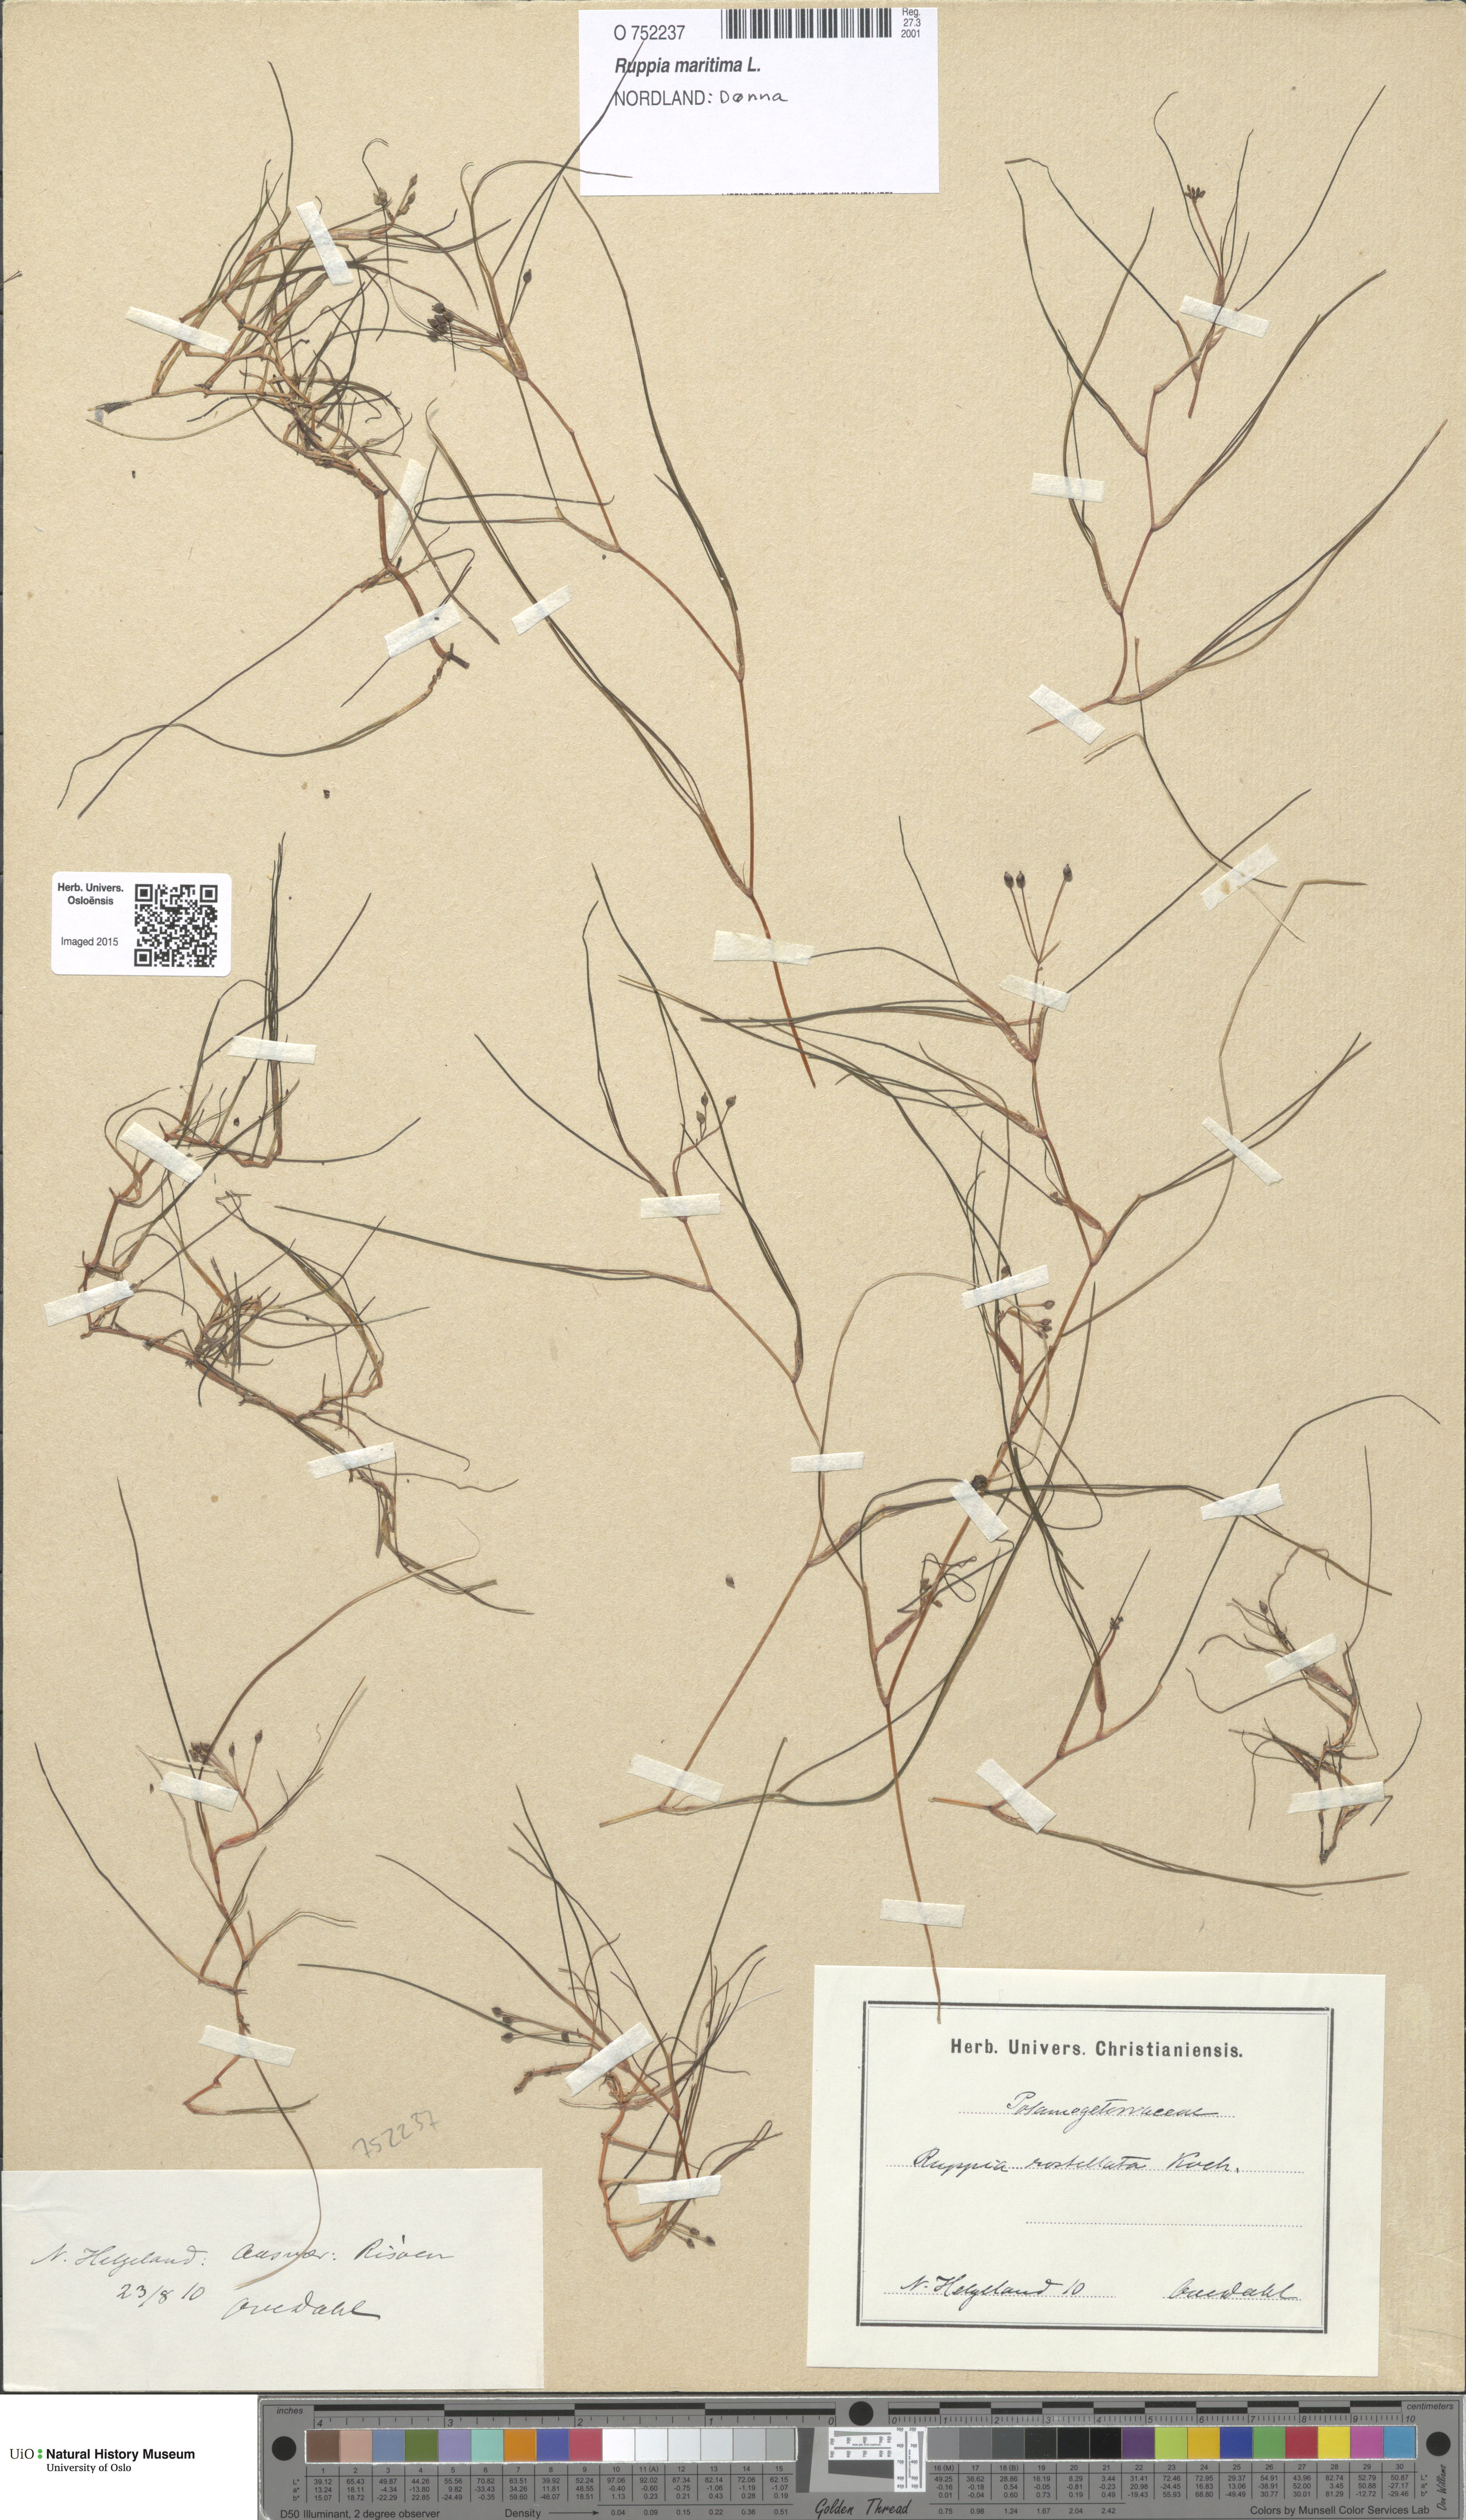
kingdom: Plantae
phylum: Tracheophyta
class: Liliopsida
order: Alismatales
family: Ruppiaceae
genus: Ruppia
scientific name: Ruppia maritima
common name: Beaked tasselweed
